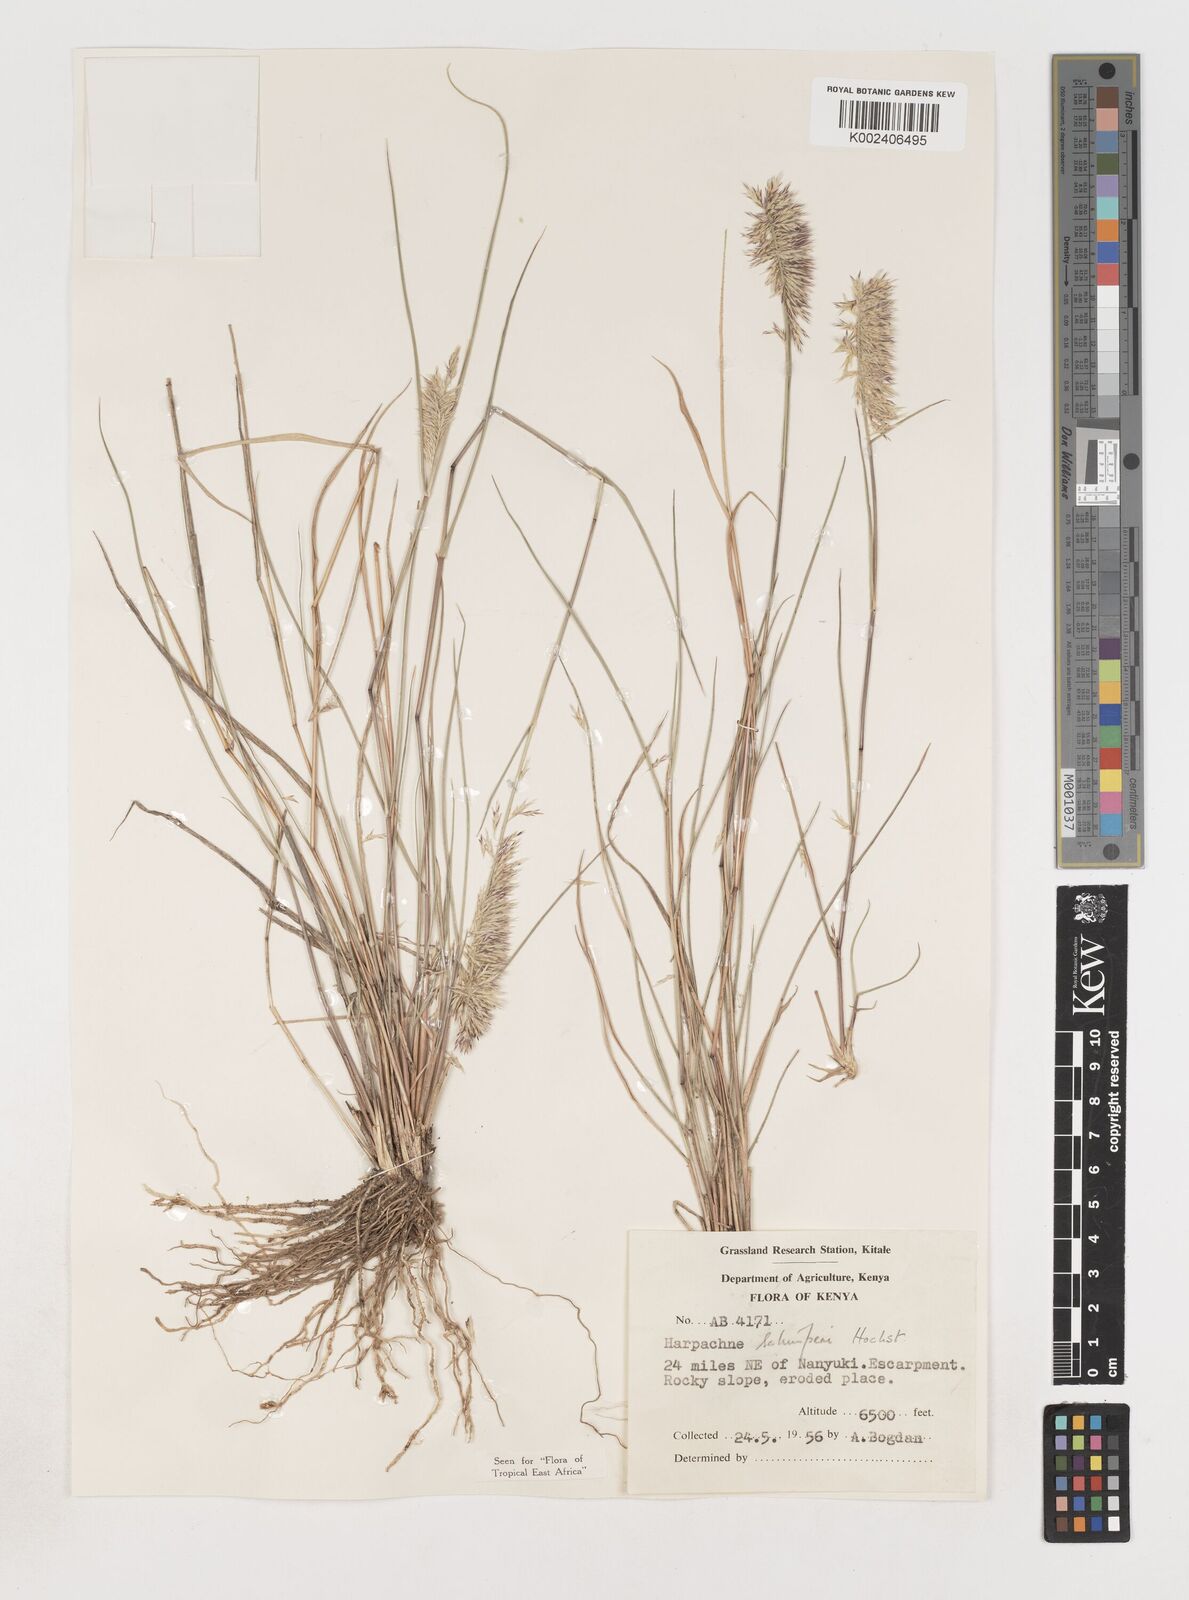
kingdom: Plantae
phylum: Tracheophyta
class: Liliopsida
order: Poales
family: Poaceae
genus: Harpachne
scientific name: Harpachne schimperi
